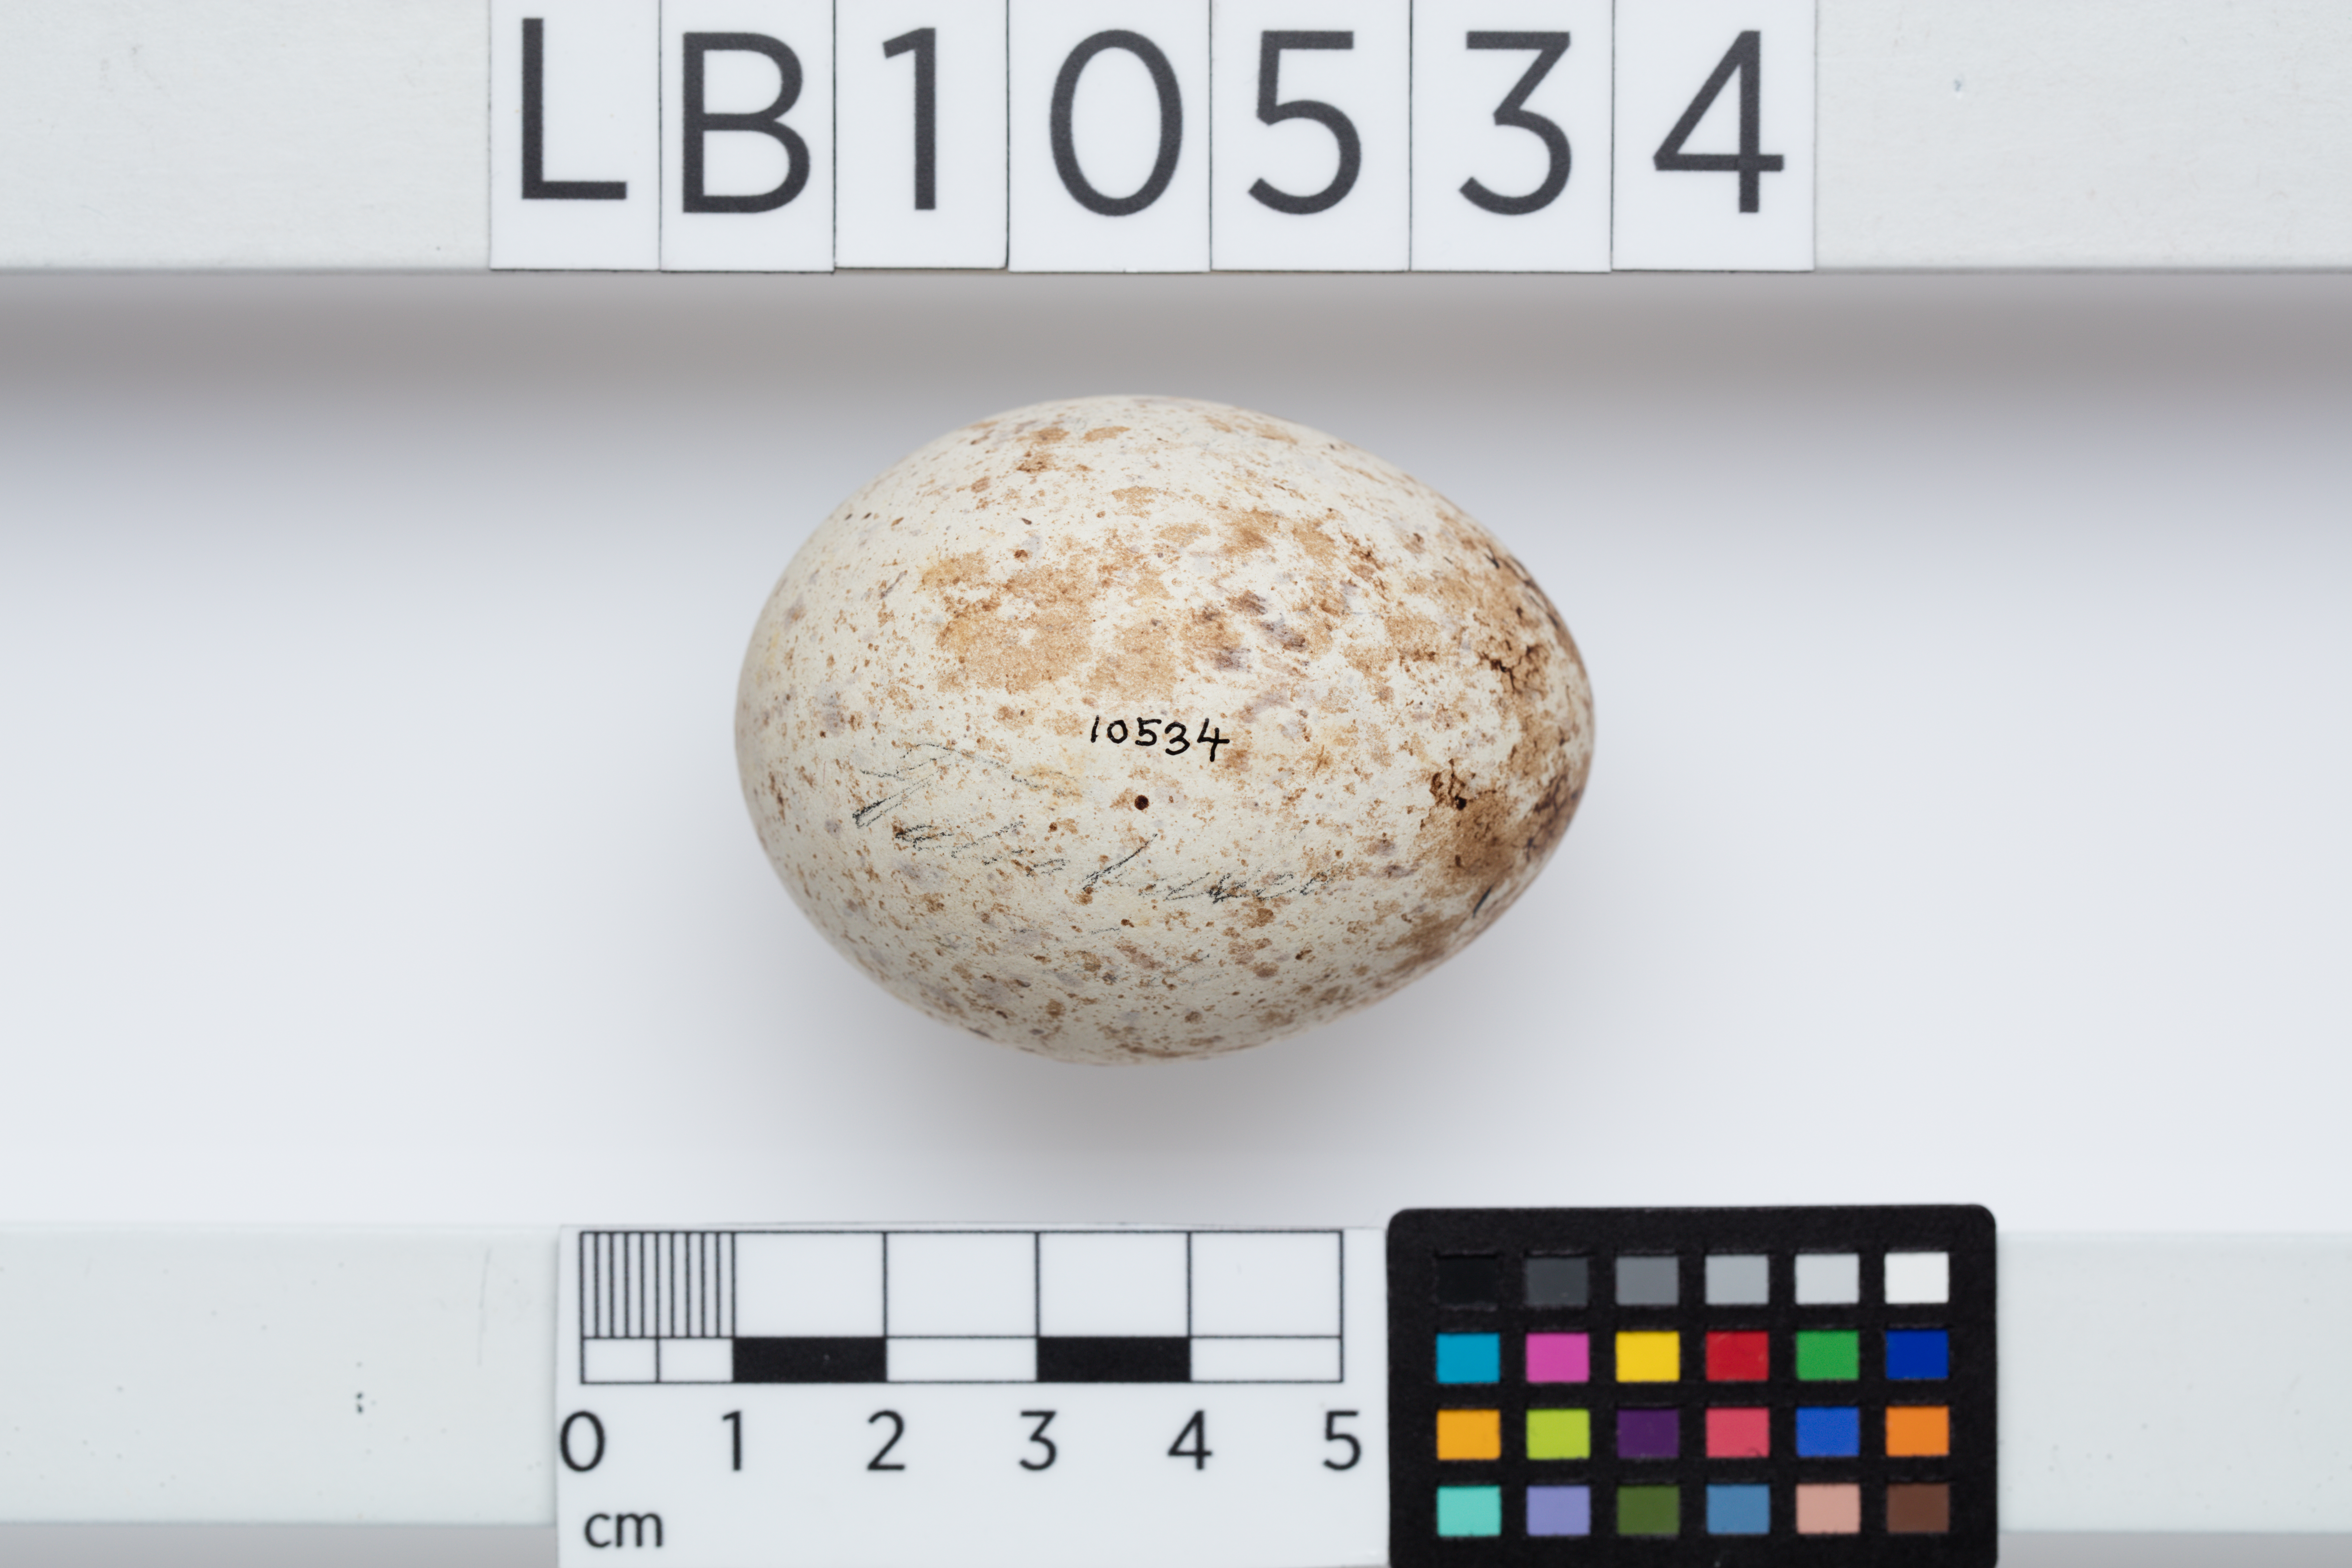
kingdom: Animalia
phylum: Chordata
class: Aves
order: Accipitriformes
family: Accipitridae
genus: Buteo
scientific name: Buteo buteo
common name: Common buzzard
